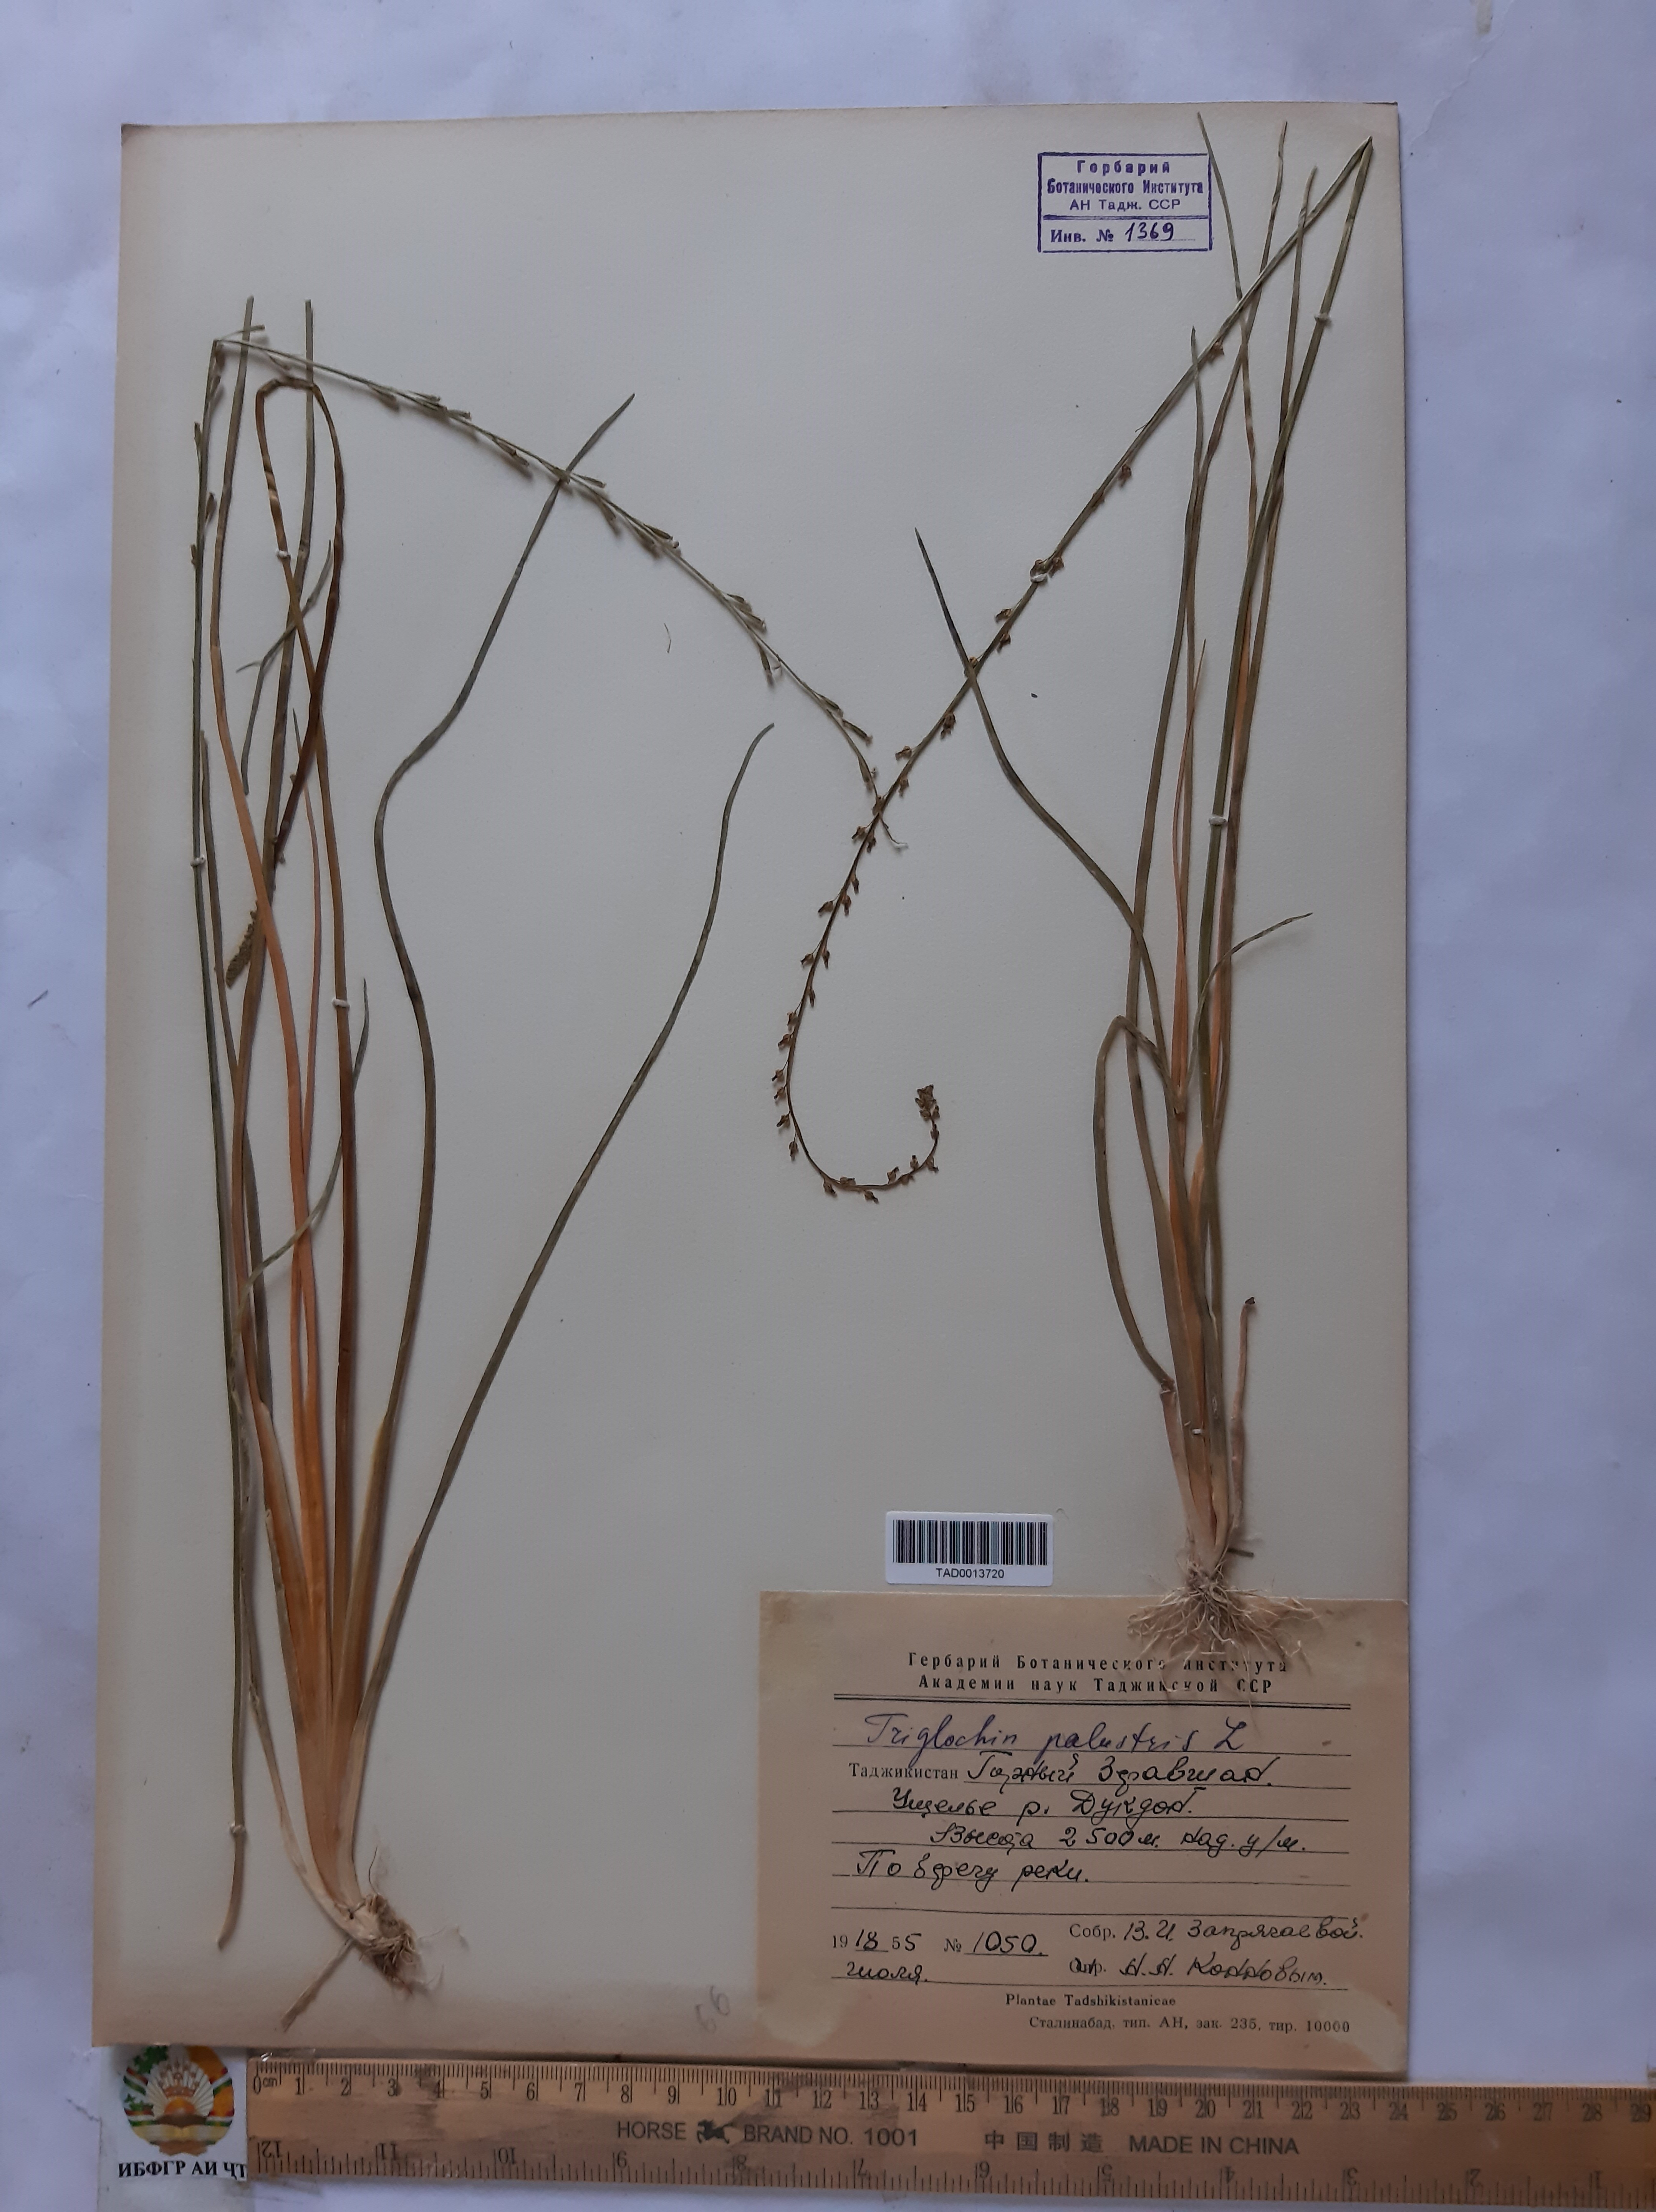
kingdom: Plantae
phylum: Tracheophyta
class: Liliopsida
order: Alismatales
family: Juncaginaceae
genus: Triglochin
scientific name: Triglochin palustris
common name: Marsh arrowgrass
